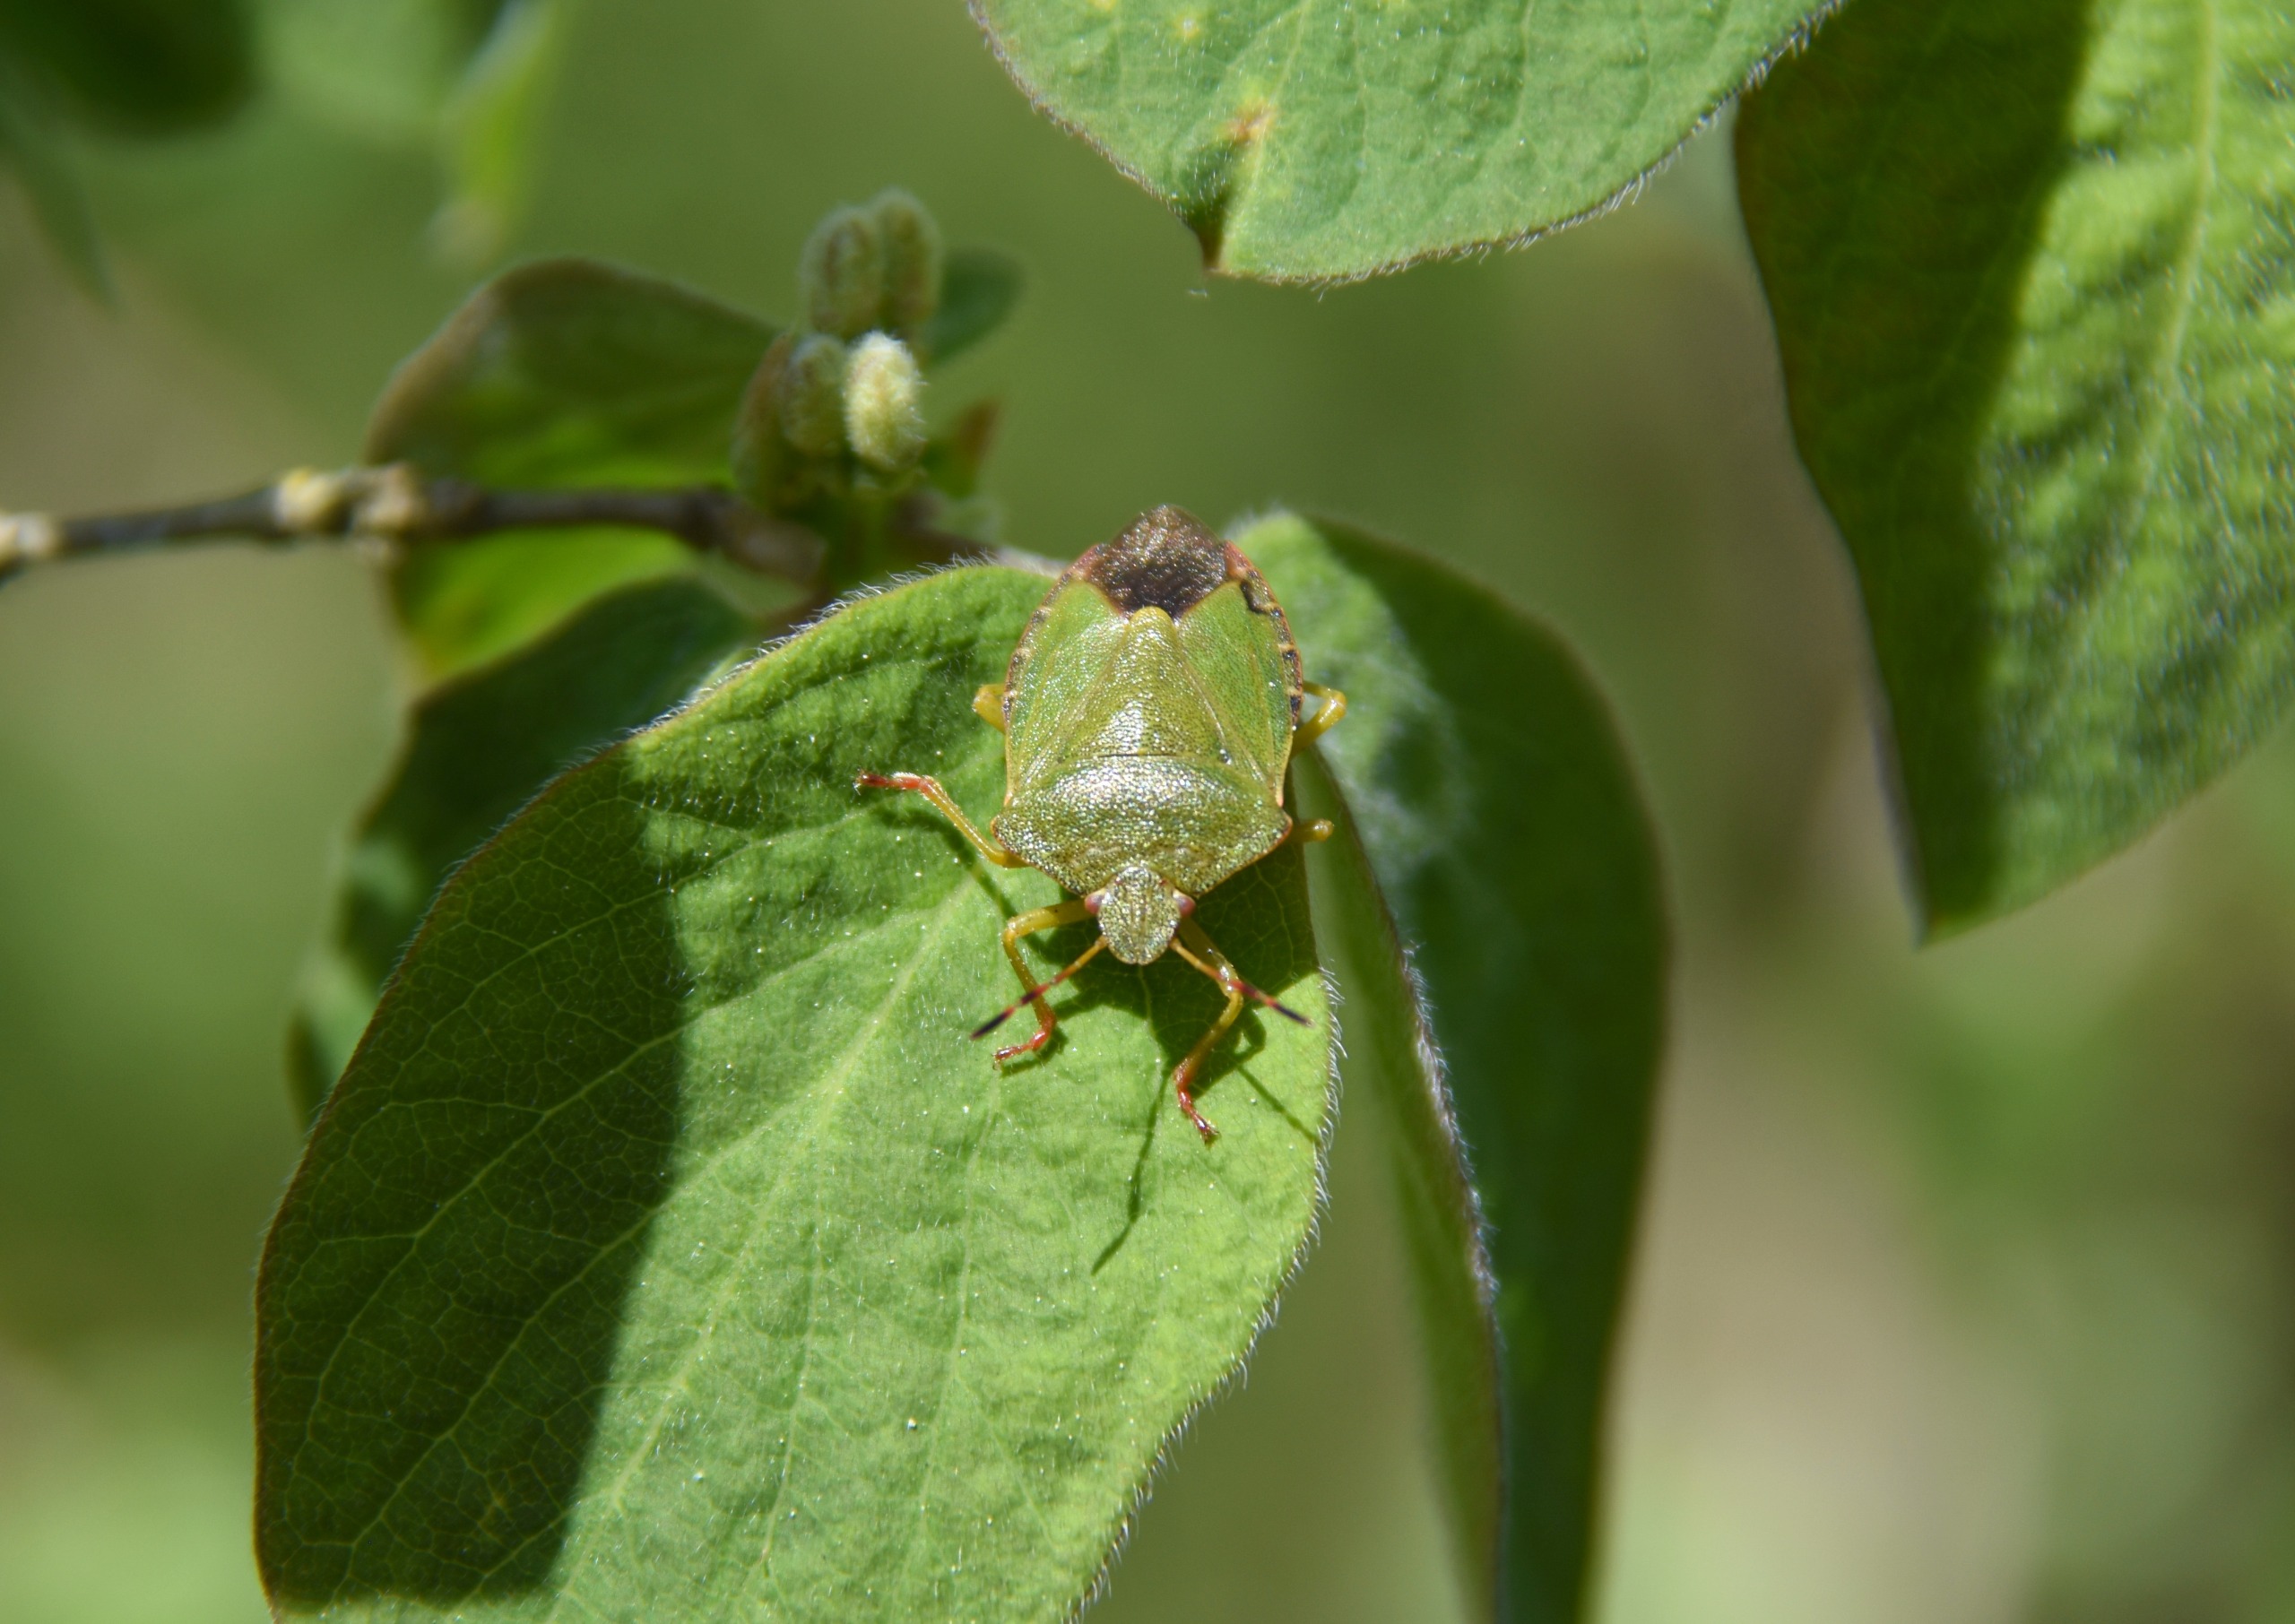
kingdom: Animalia
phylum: Arthropoda
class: Insecta
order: Hemiptera
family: Pentatomidae
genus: Palomena
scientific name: Palomena prasina
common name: Grøn bredtæge
